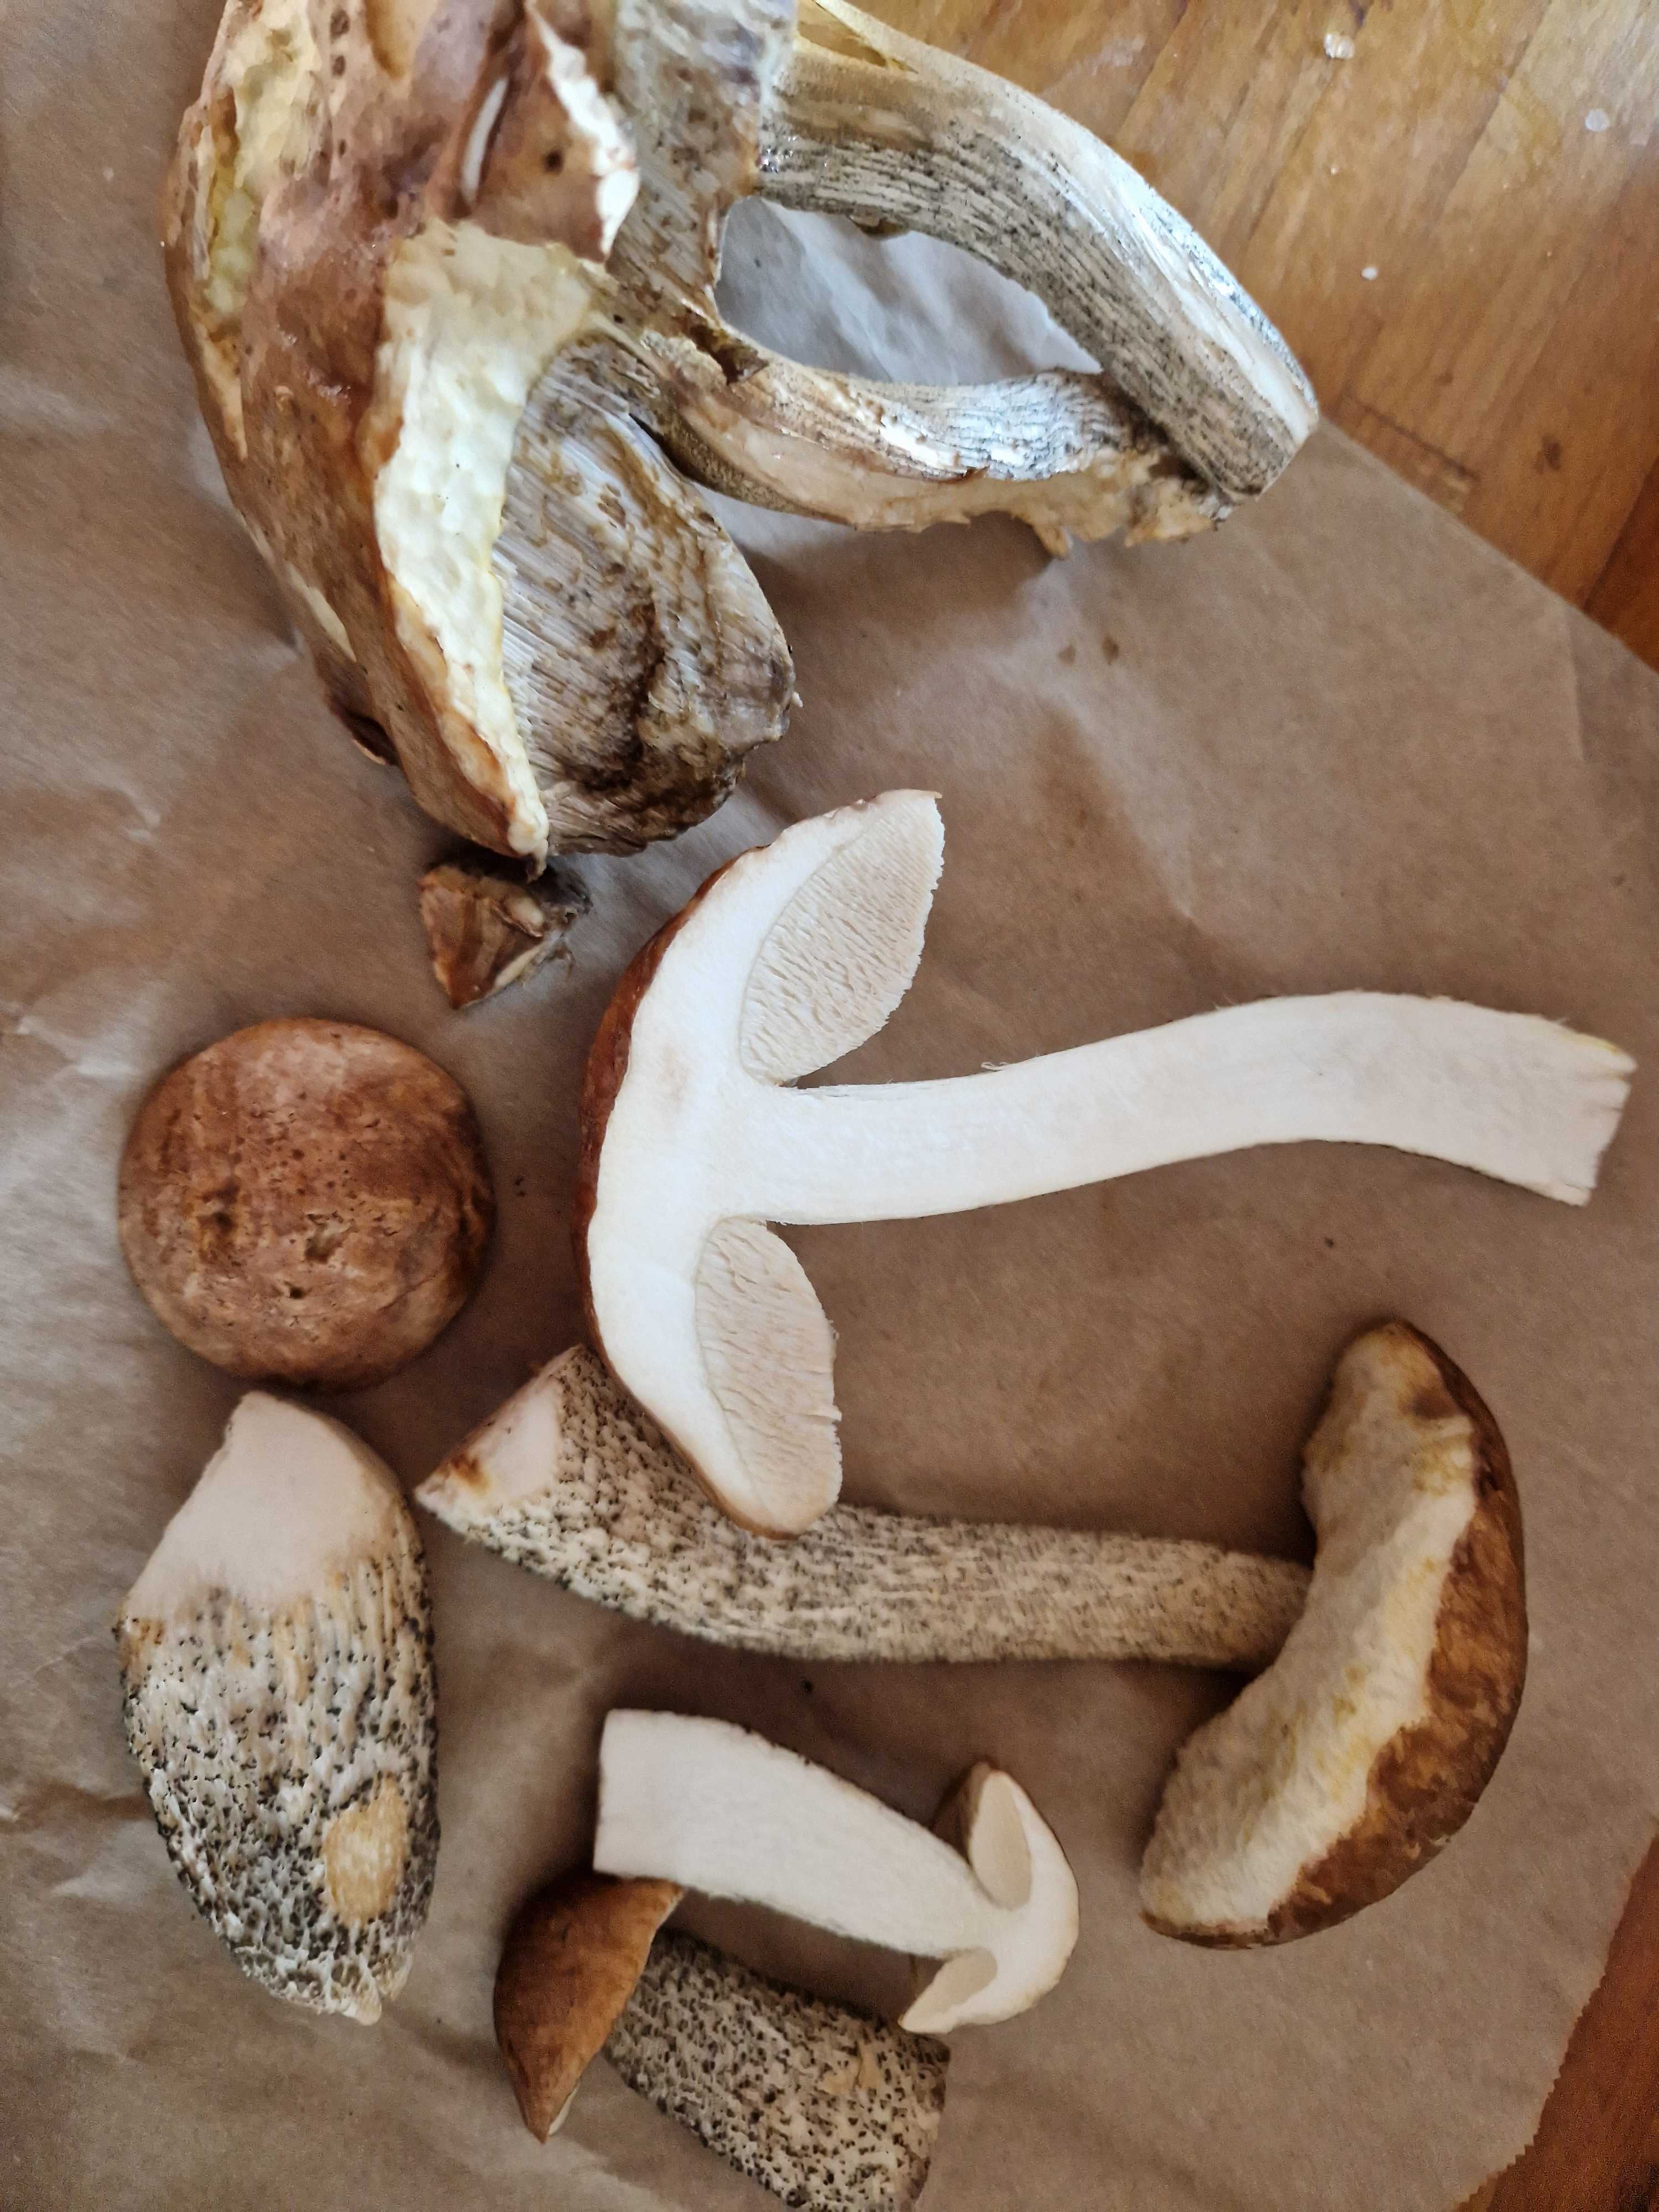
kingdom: Fungi
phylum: Basidiomycota
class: Agaricomycetes
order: Boletales
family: Boletaceae
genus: Leccinum
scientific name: Leccinum scabrum
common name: brun skælrørhat
